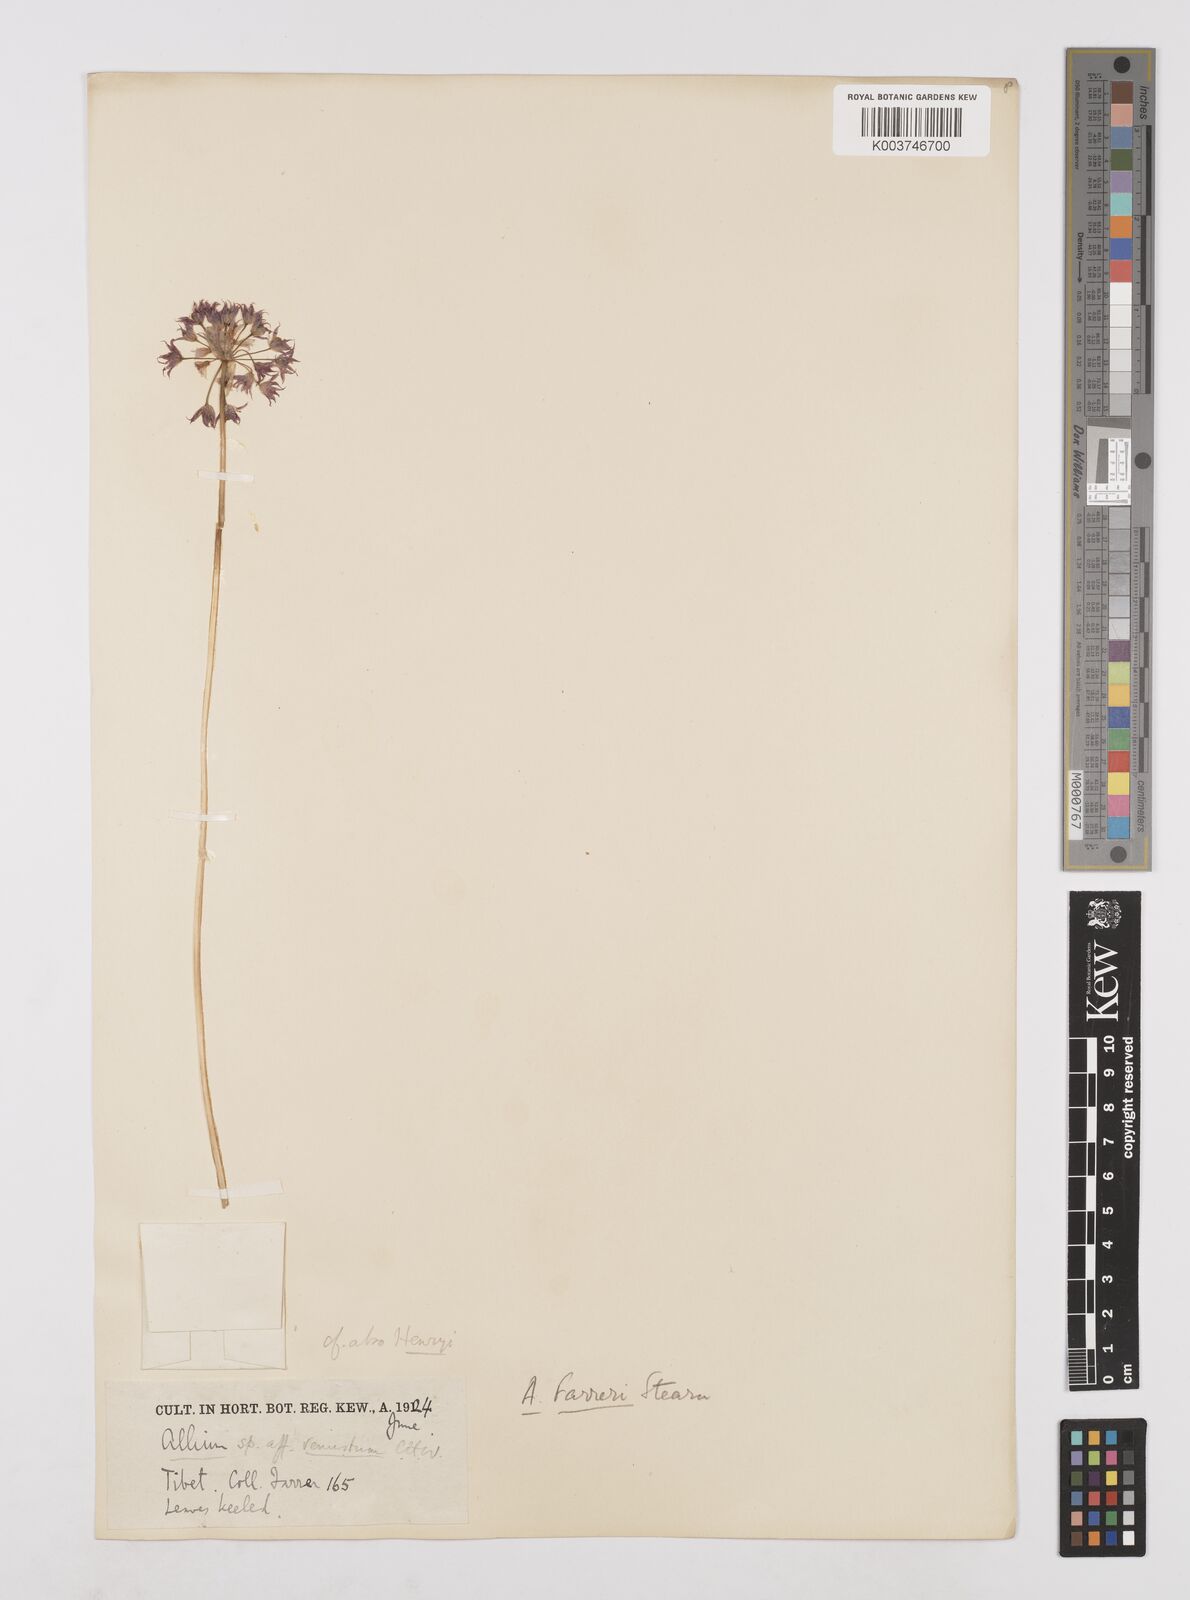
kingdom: Plantae
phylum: Tracheophyta
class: Liliopsida
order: Asparagales
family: Amaryllidaceae
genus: Allium
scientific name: Allium farreri
